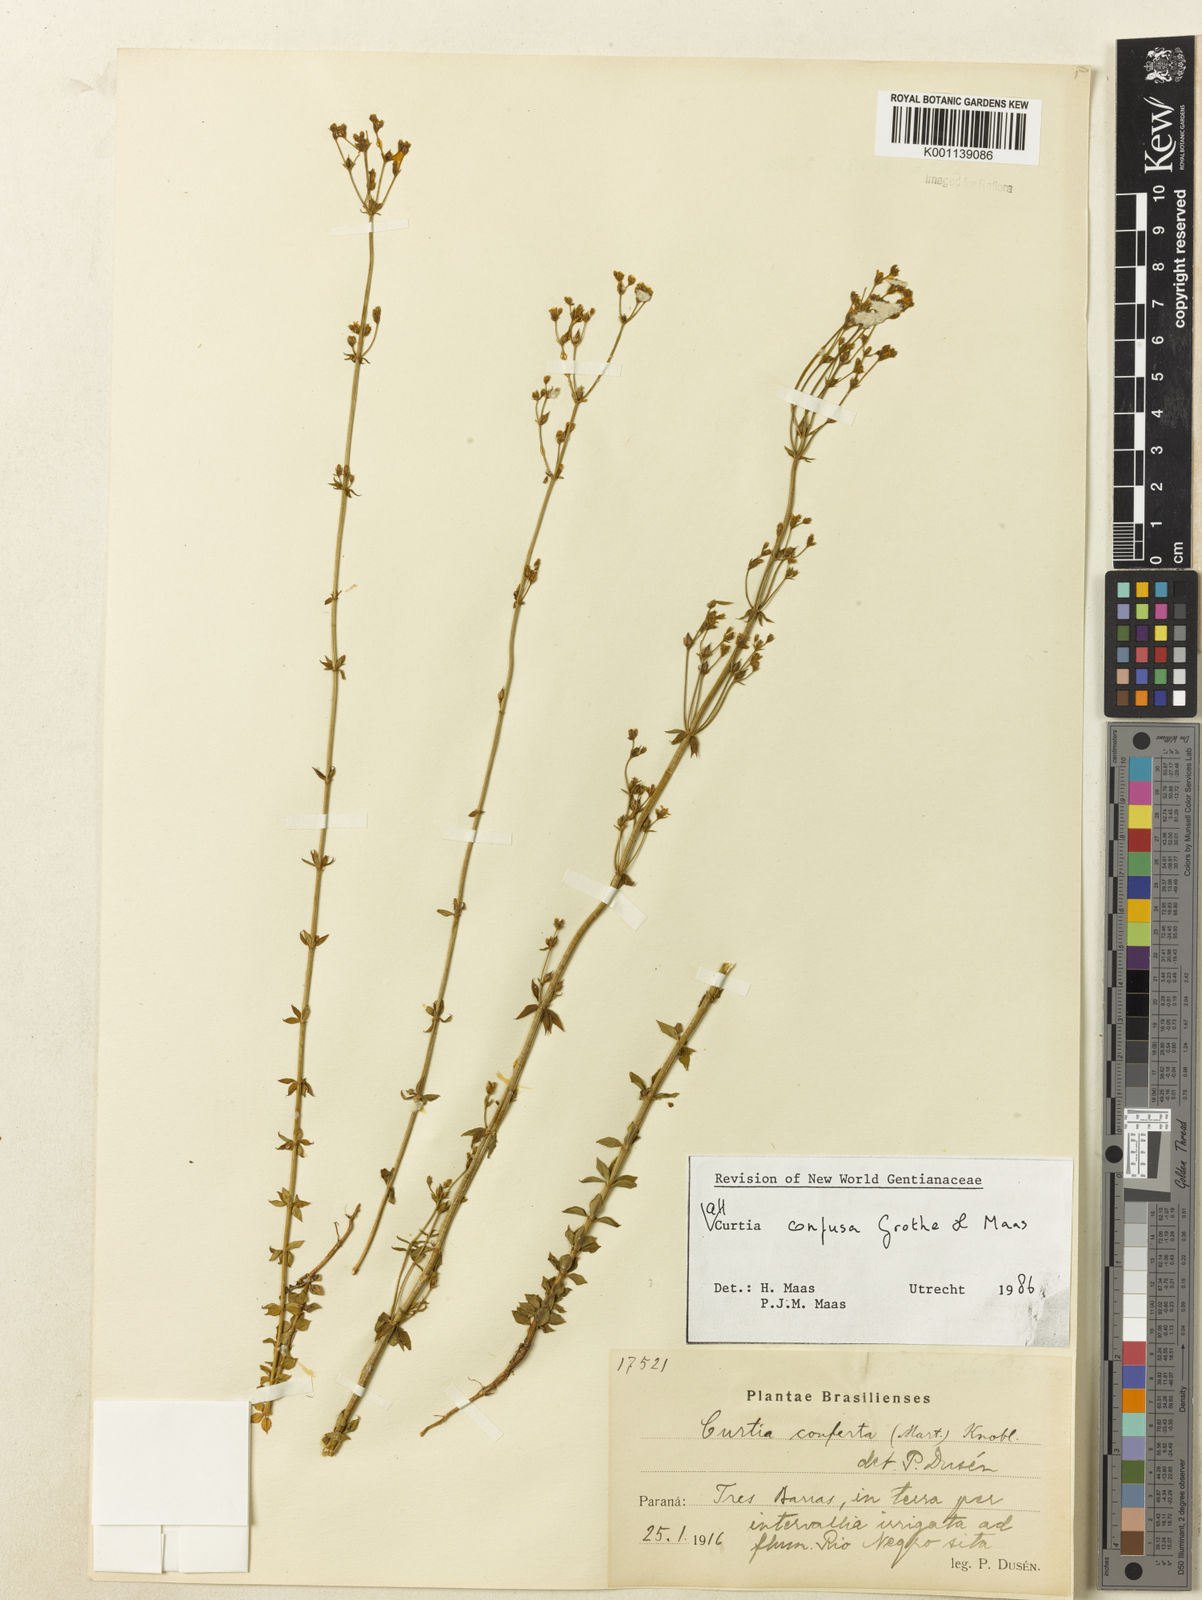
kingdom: Plantae
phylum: Tracheophyta
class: Magnoliopsida
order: Gentianales
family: Gentianaceae
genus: Curtia
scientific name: Curtia conferta
